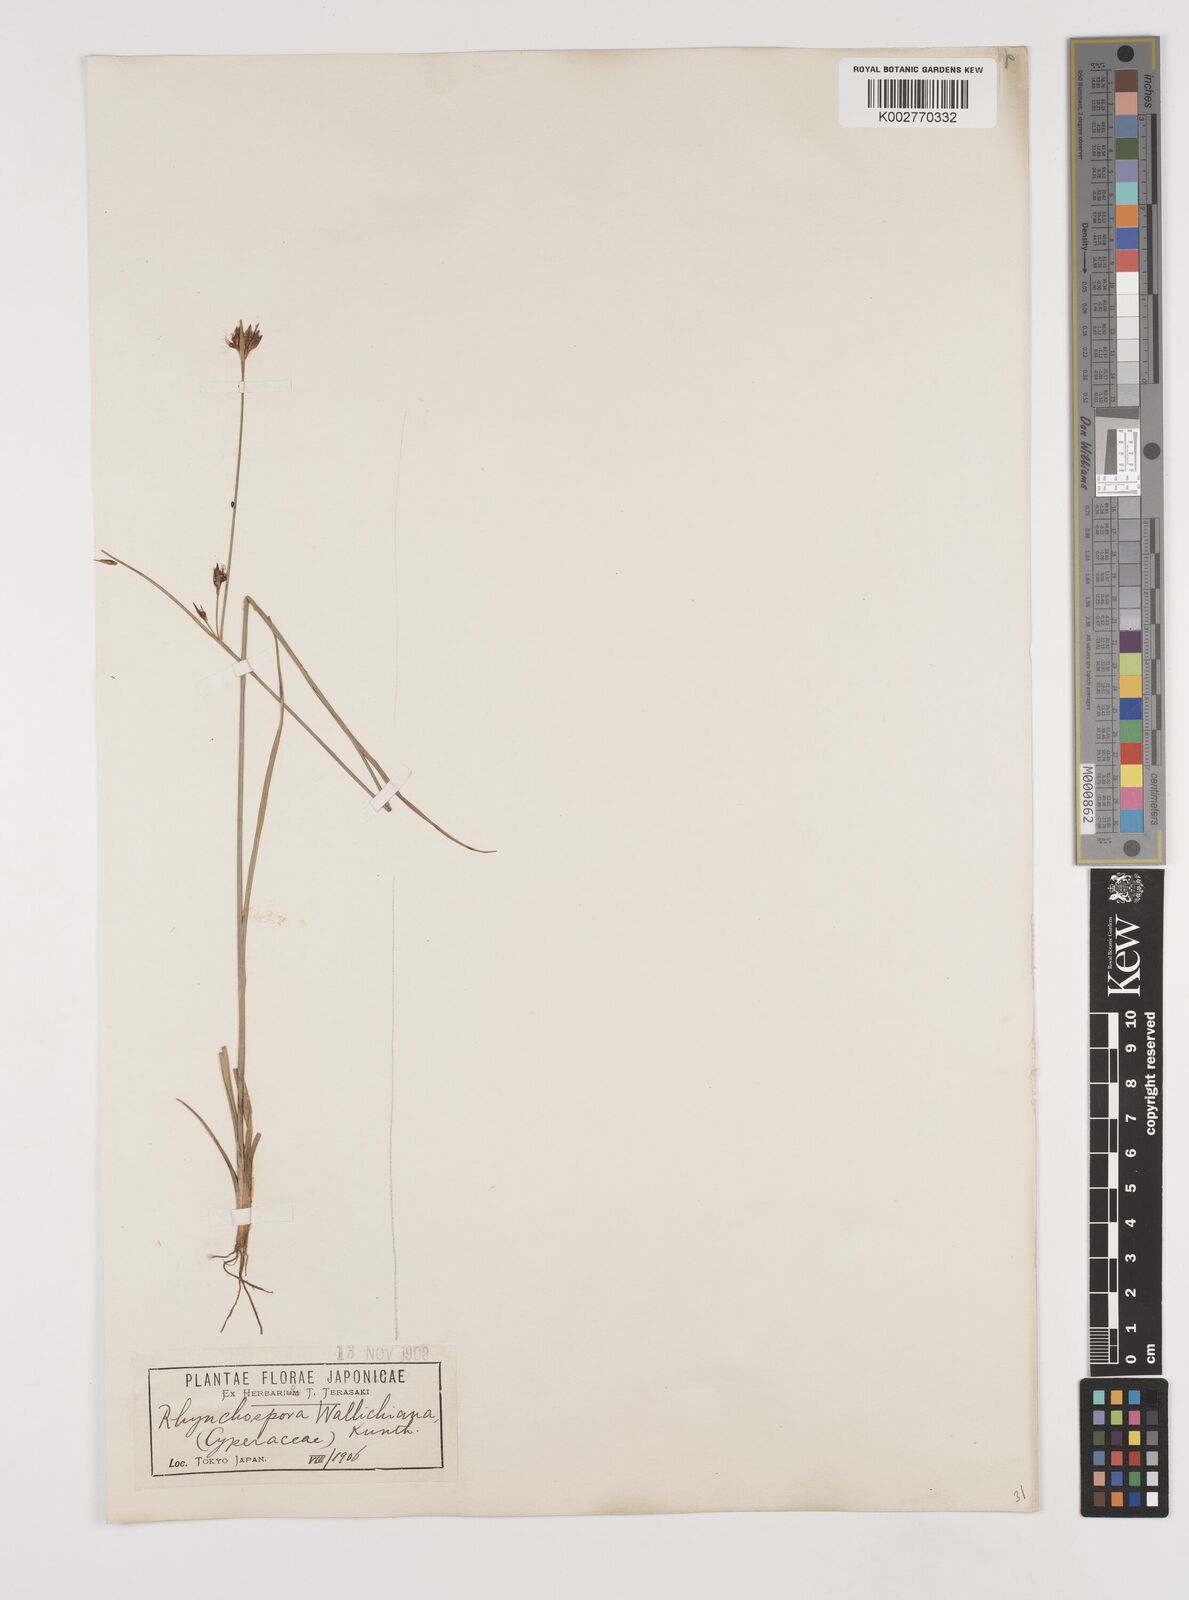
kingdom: Plantae
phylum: Tracheophyta
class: Liliopsida
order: Poales
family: Cyperaceae
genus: Rhynchospora
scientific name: Rhynchospora rubra
